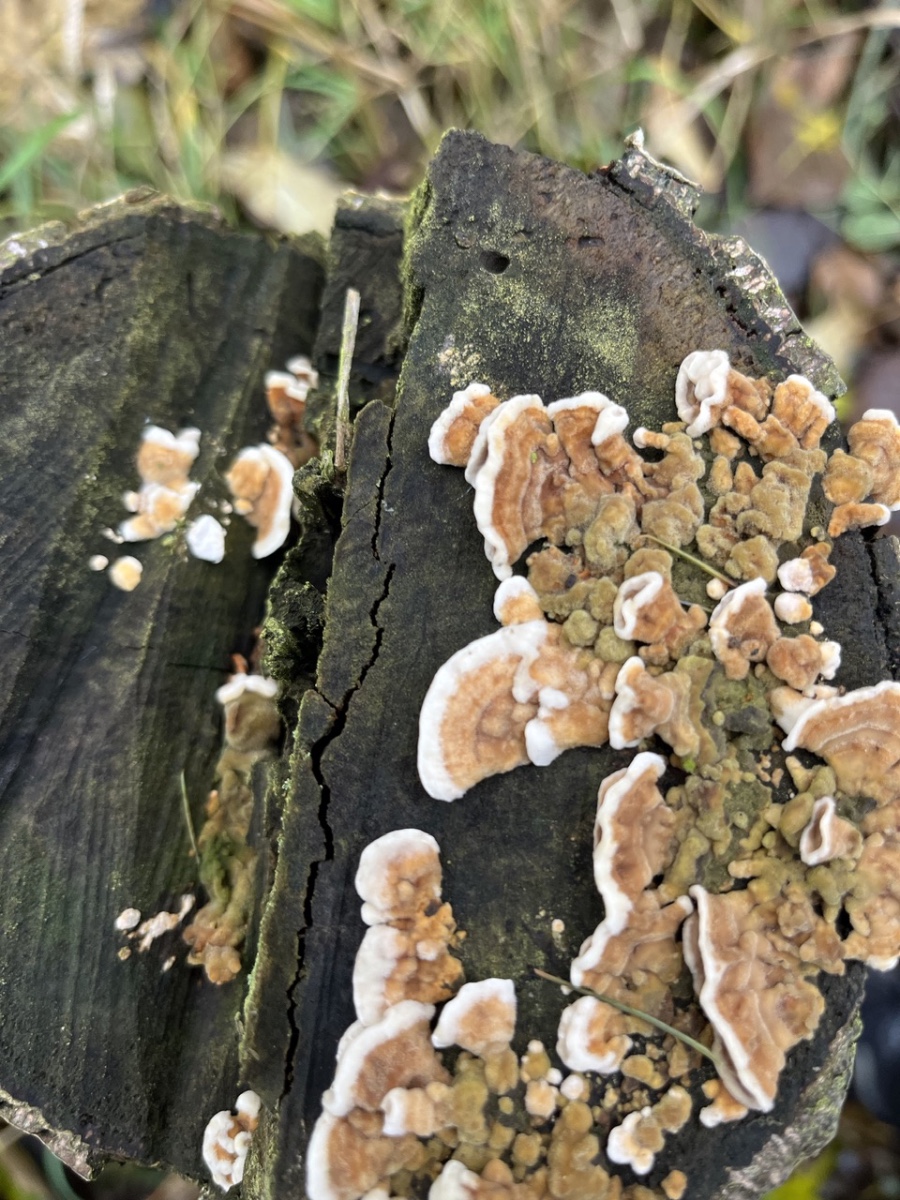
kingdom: Fungi
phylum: Basidiomycota
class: Agaricomycetes
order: Polyporales
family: Polyporaceae
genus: Trametes
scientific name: Trametes
